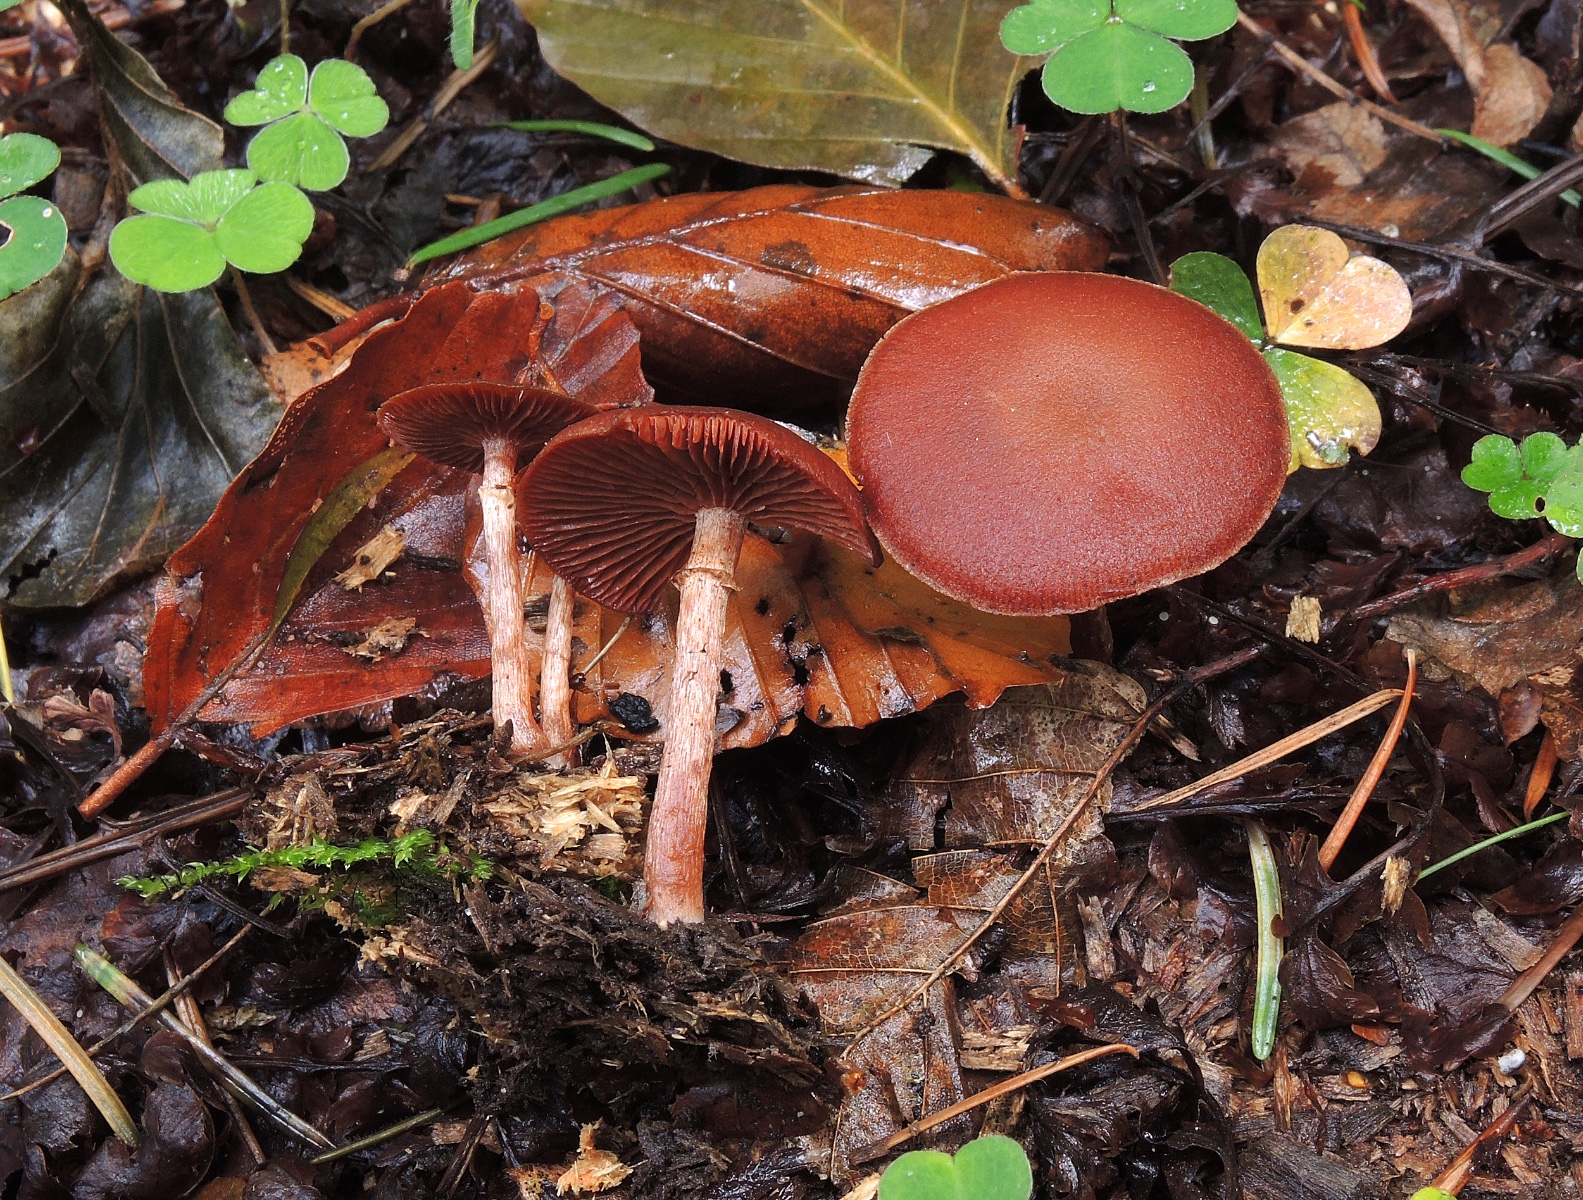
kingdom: Fungi
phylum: Basidiomycota
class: Agaricomycetes
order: Agaricales
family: Tubariaceae
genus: Tubaria
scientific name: Tubaria confragosa
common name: ring-fnughat
